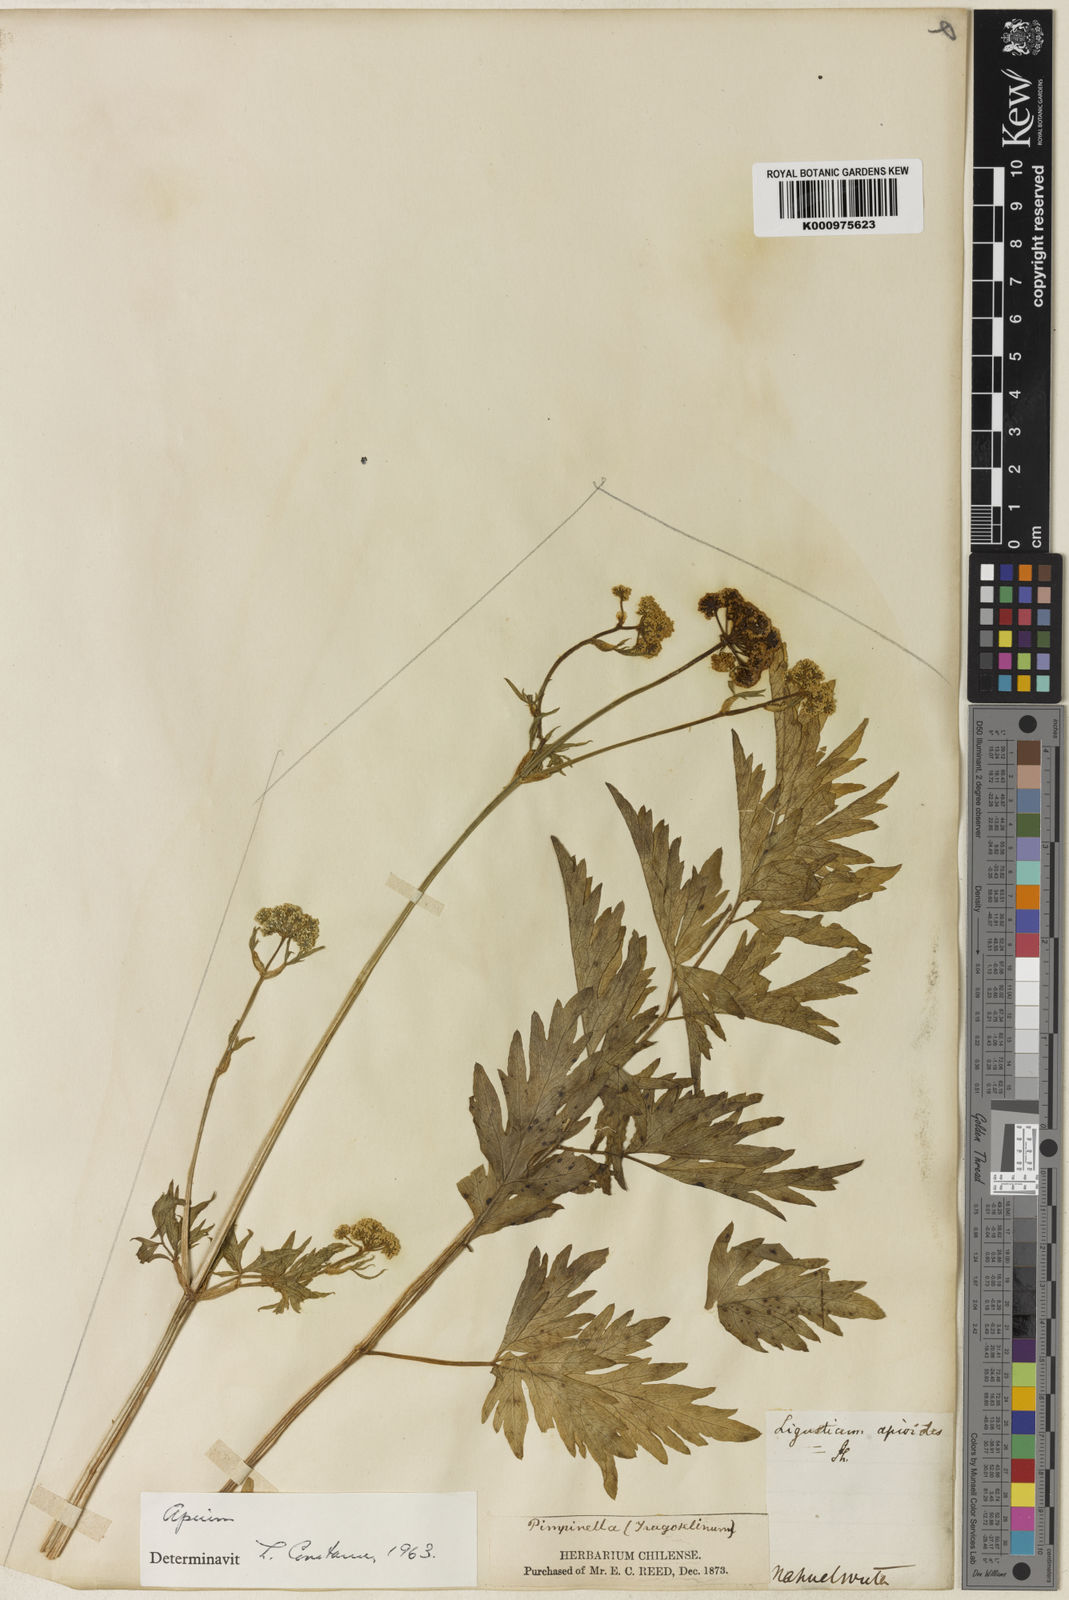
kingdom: Plantae
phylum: Tracheophyta
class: Magnoliopsida
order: Apiales
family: Apiaceae
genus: Apium
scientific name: Apium panul
